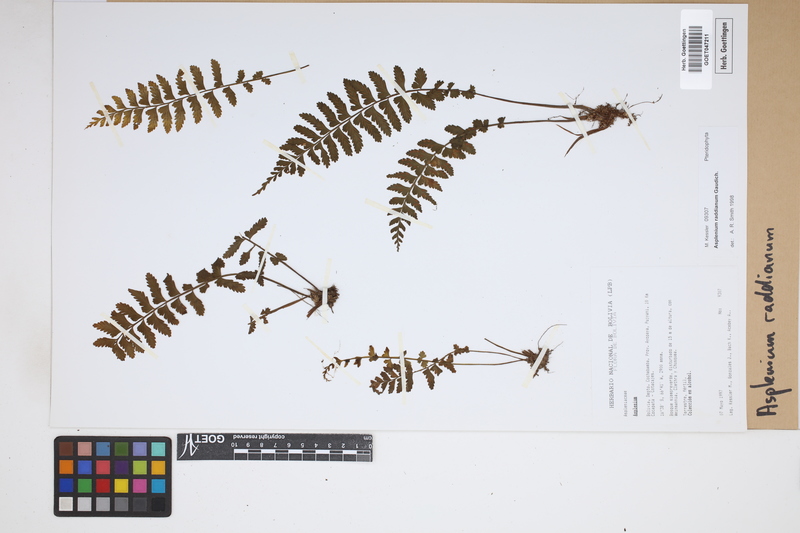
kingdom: Plantae
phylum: Tracheophyta
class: Polypodiopsida
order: Polypodiales
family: Aspleniaceae
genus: Asplenium
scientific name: Asplenium raddianum
